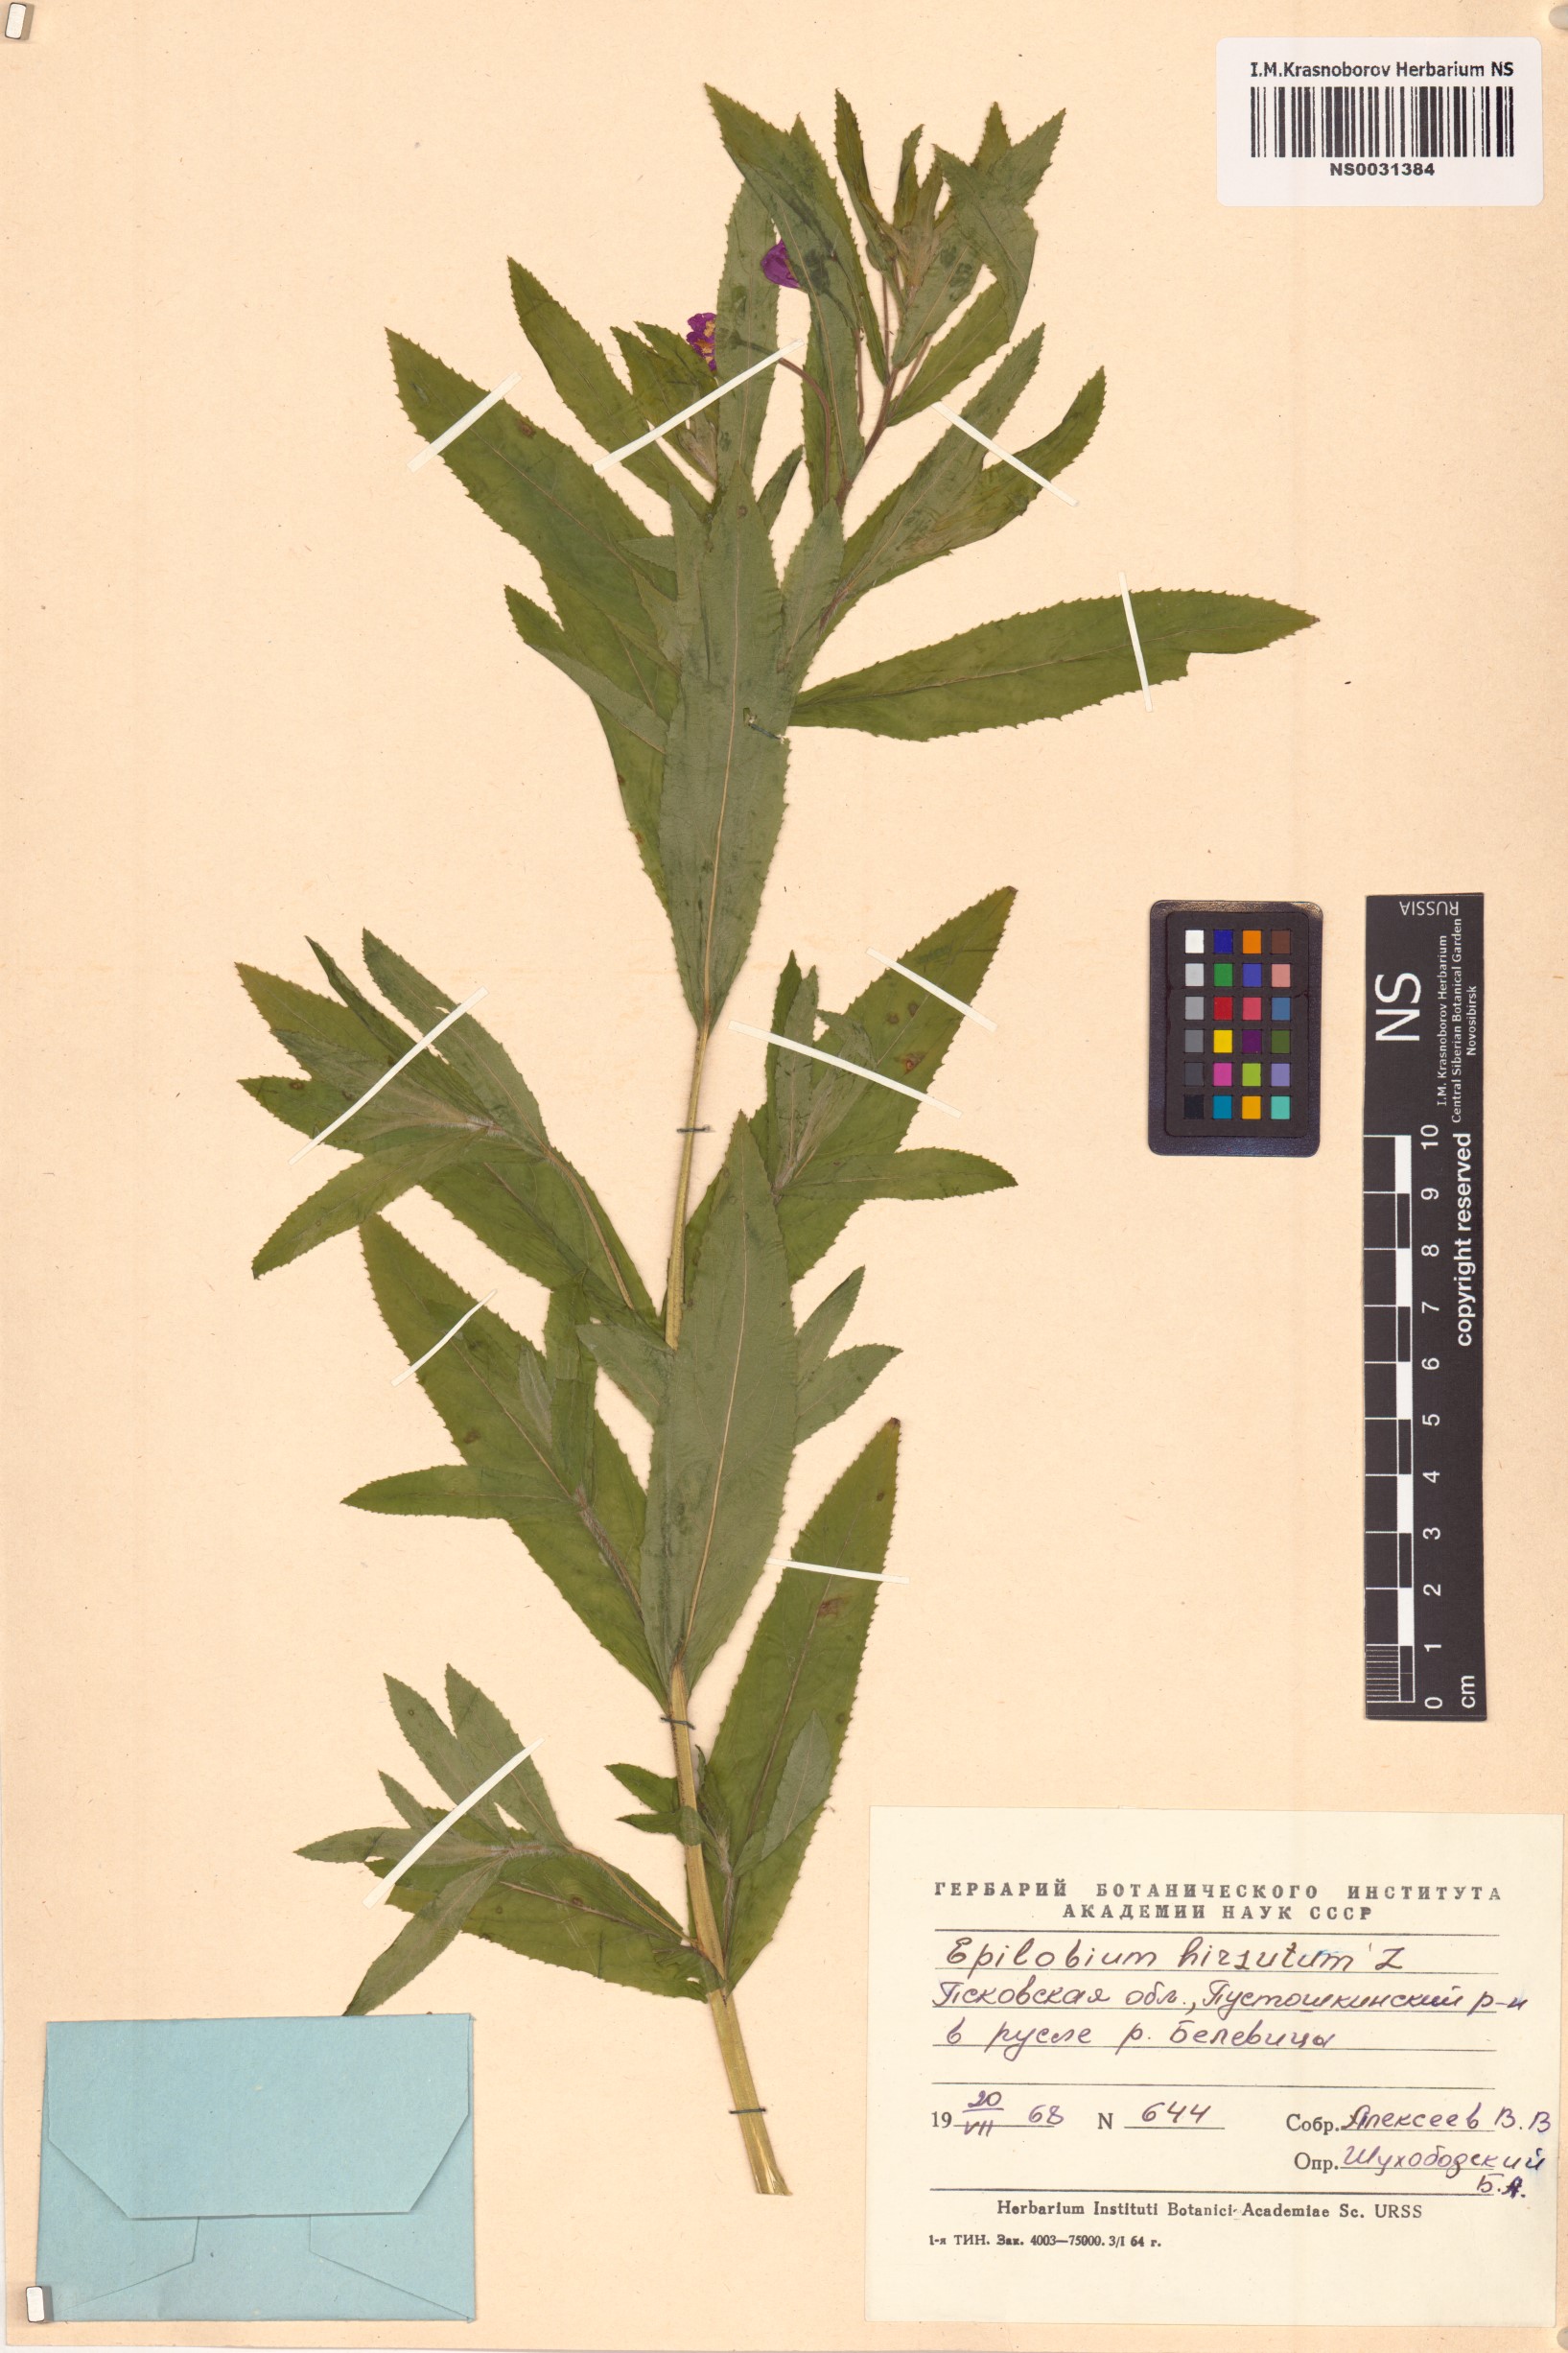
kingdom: Plantae
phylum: Tracheophyta
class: Magnoliopsida
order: Myrtales
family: Onagraceae
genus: Epilobium
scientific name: Epilobium hirsutum
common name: Great willowherb
